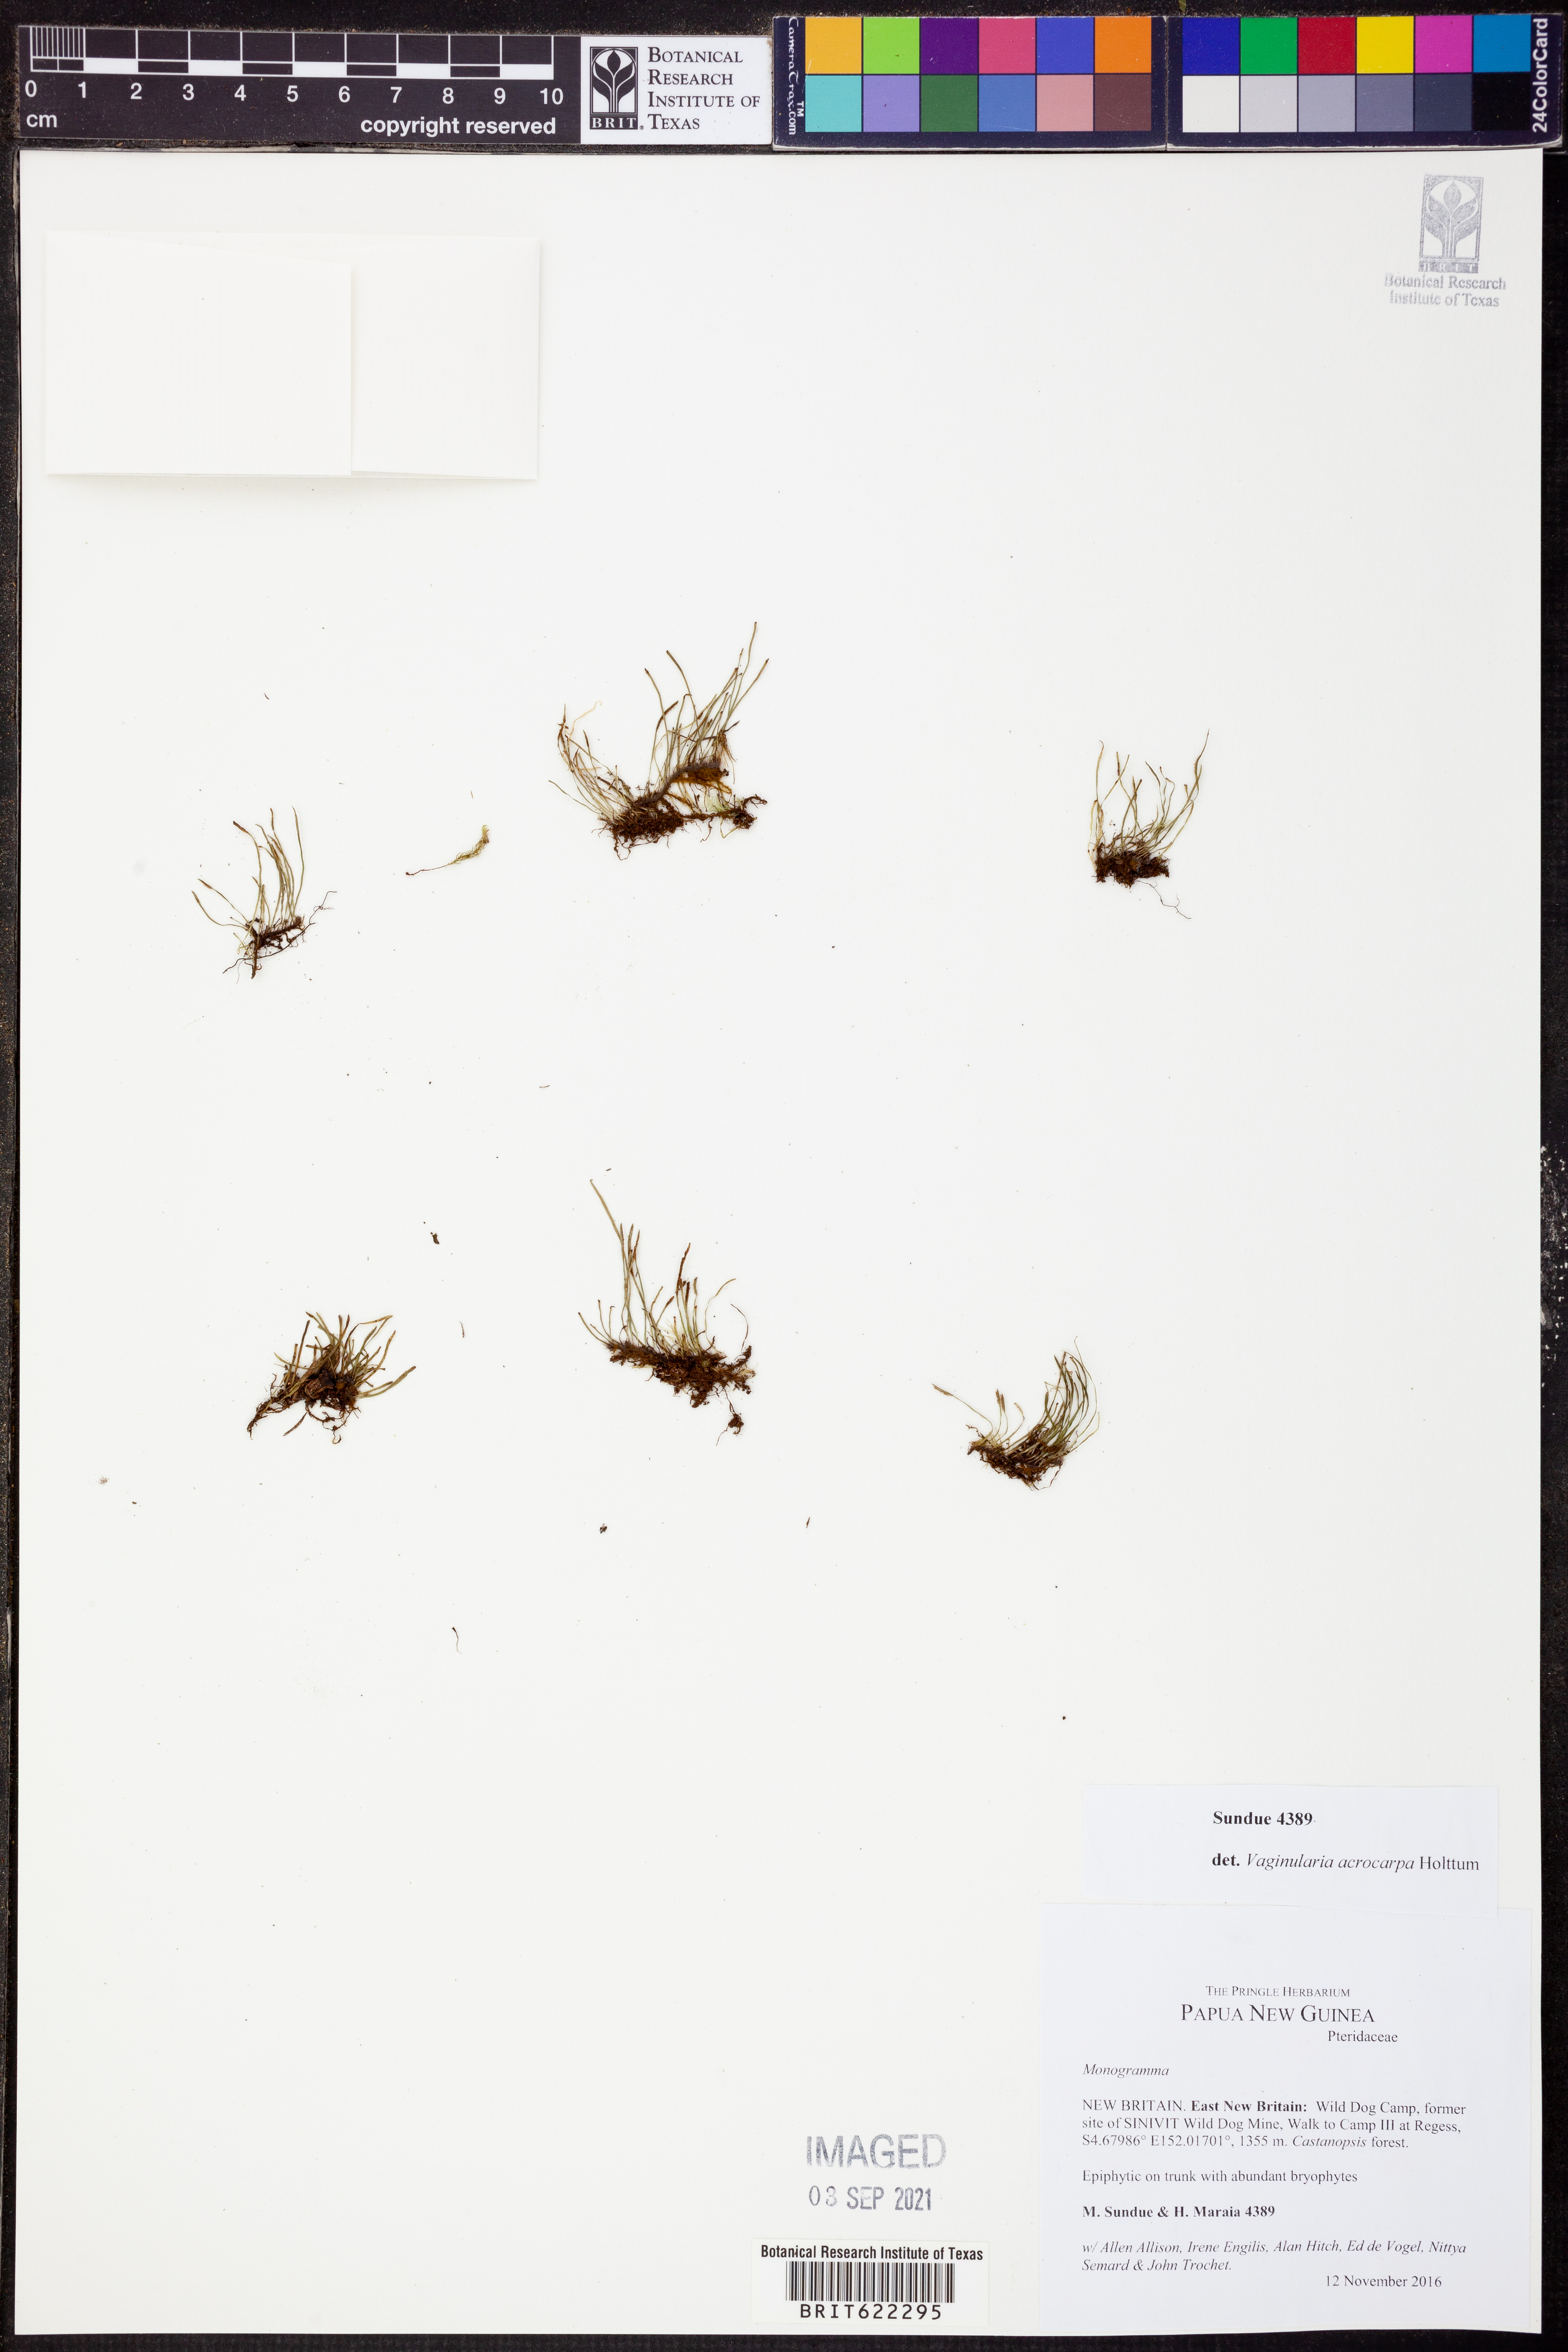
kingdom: Plantae
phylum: Tracheophyta
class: Polypodiopsida
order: Polypodiales
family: Pteridaceae
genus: Vaginularia
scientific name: Vaginularia acrocarpa
